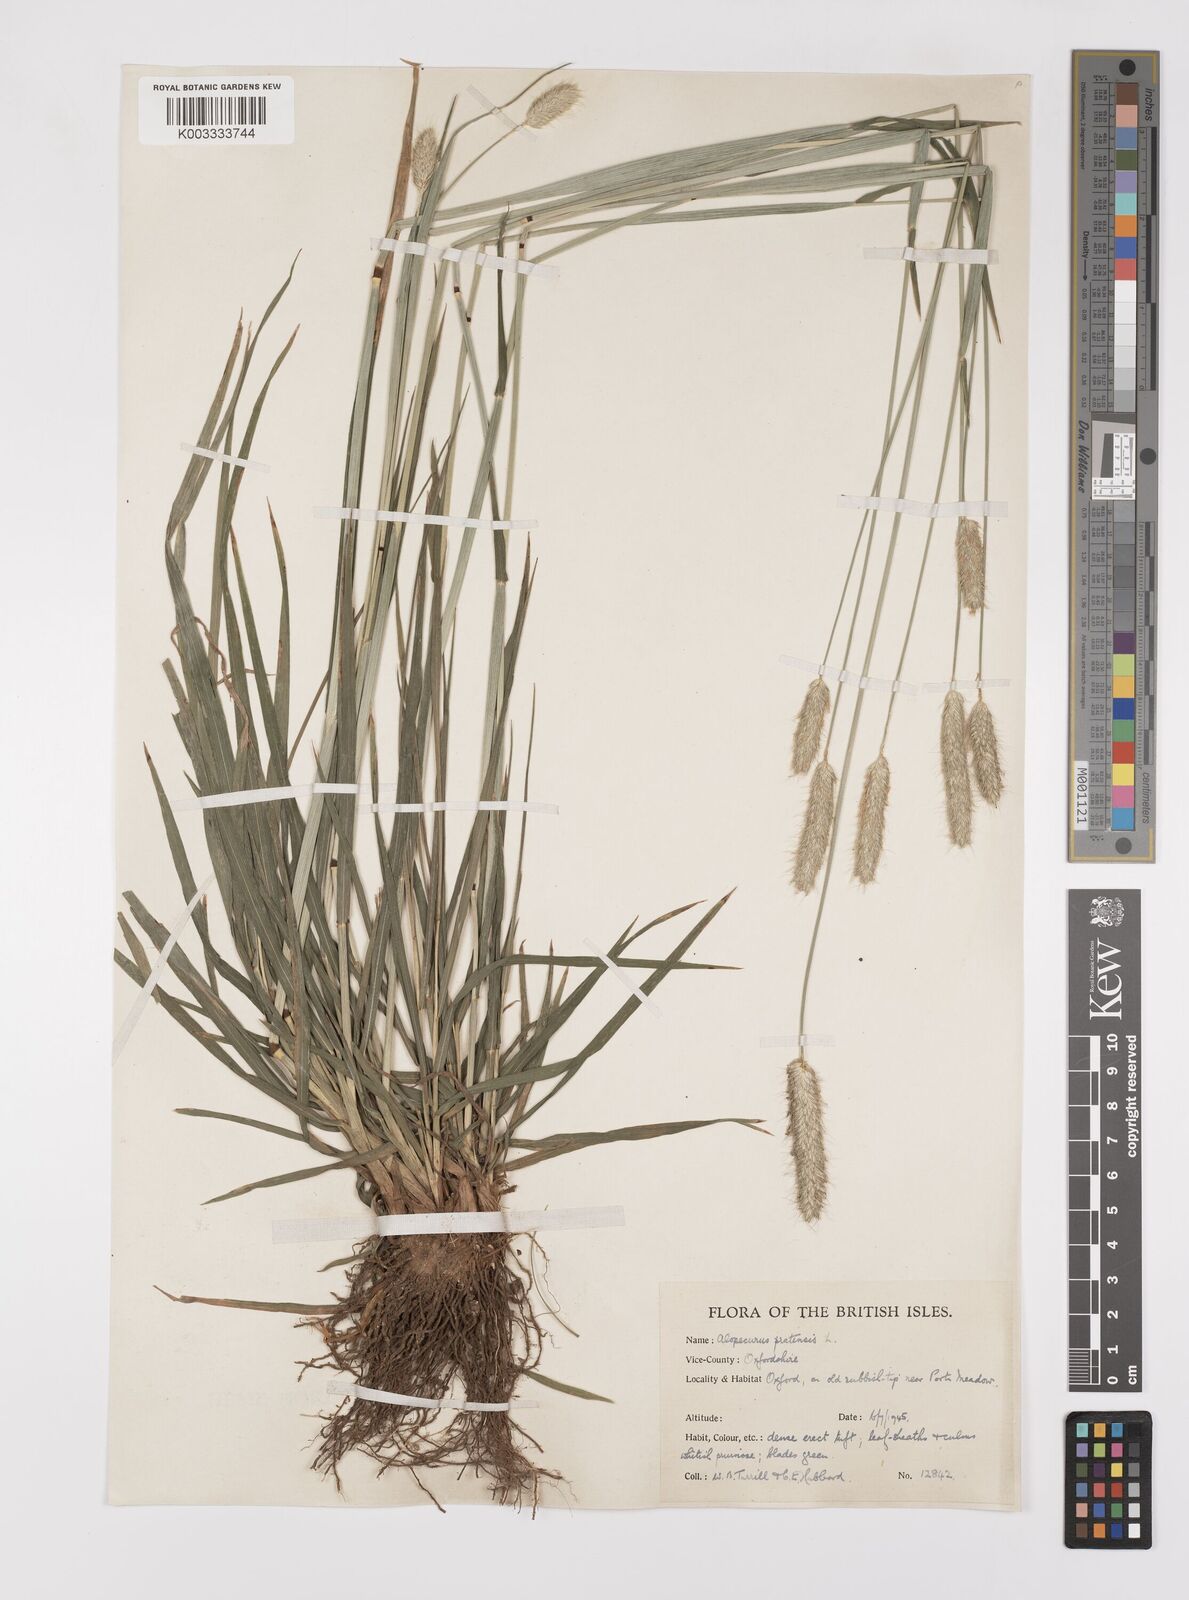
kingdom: Plantae
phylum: Tracheophyta
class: Liliopsida
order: Poales
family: Poaceae
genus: Alopecurus
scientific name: Alopecurus pratensis
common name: Meadow foxtail
